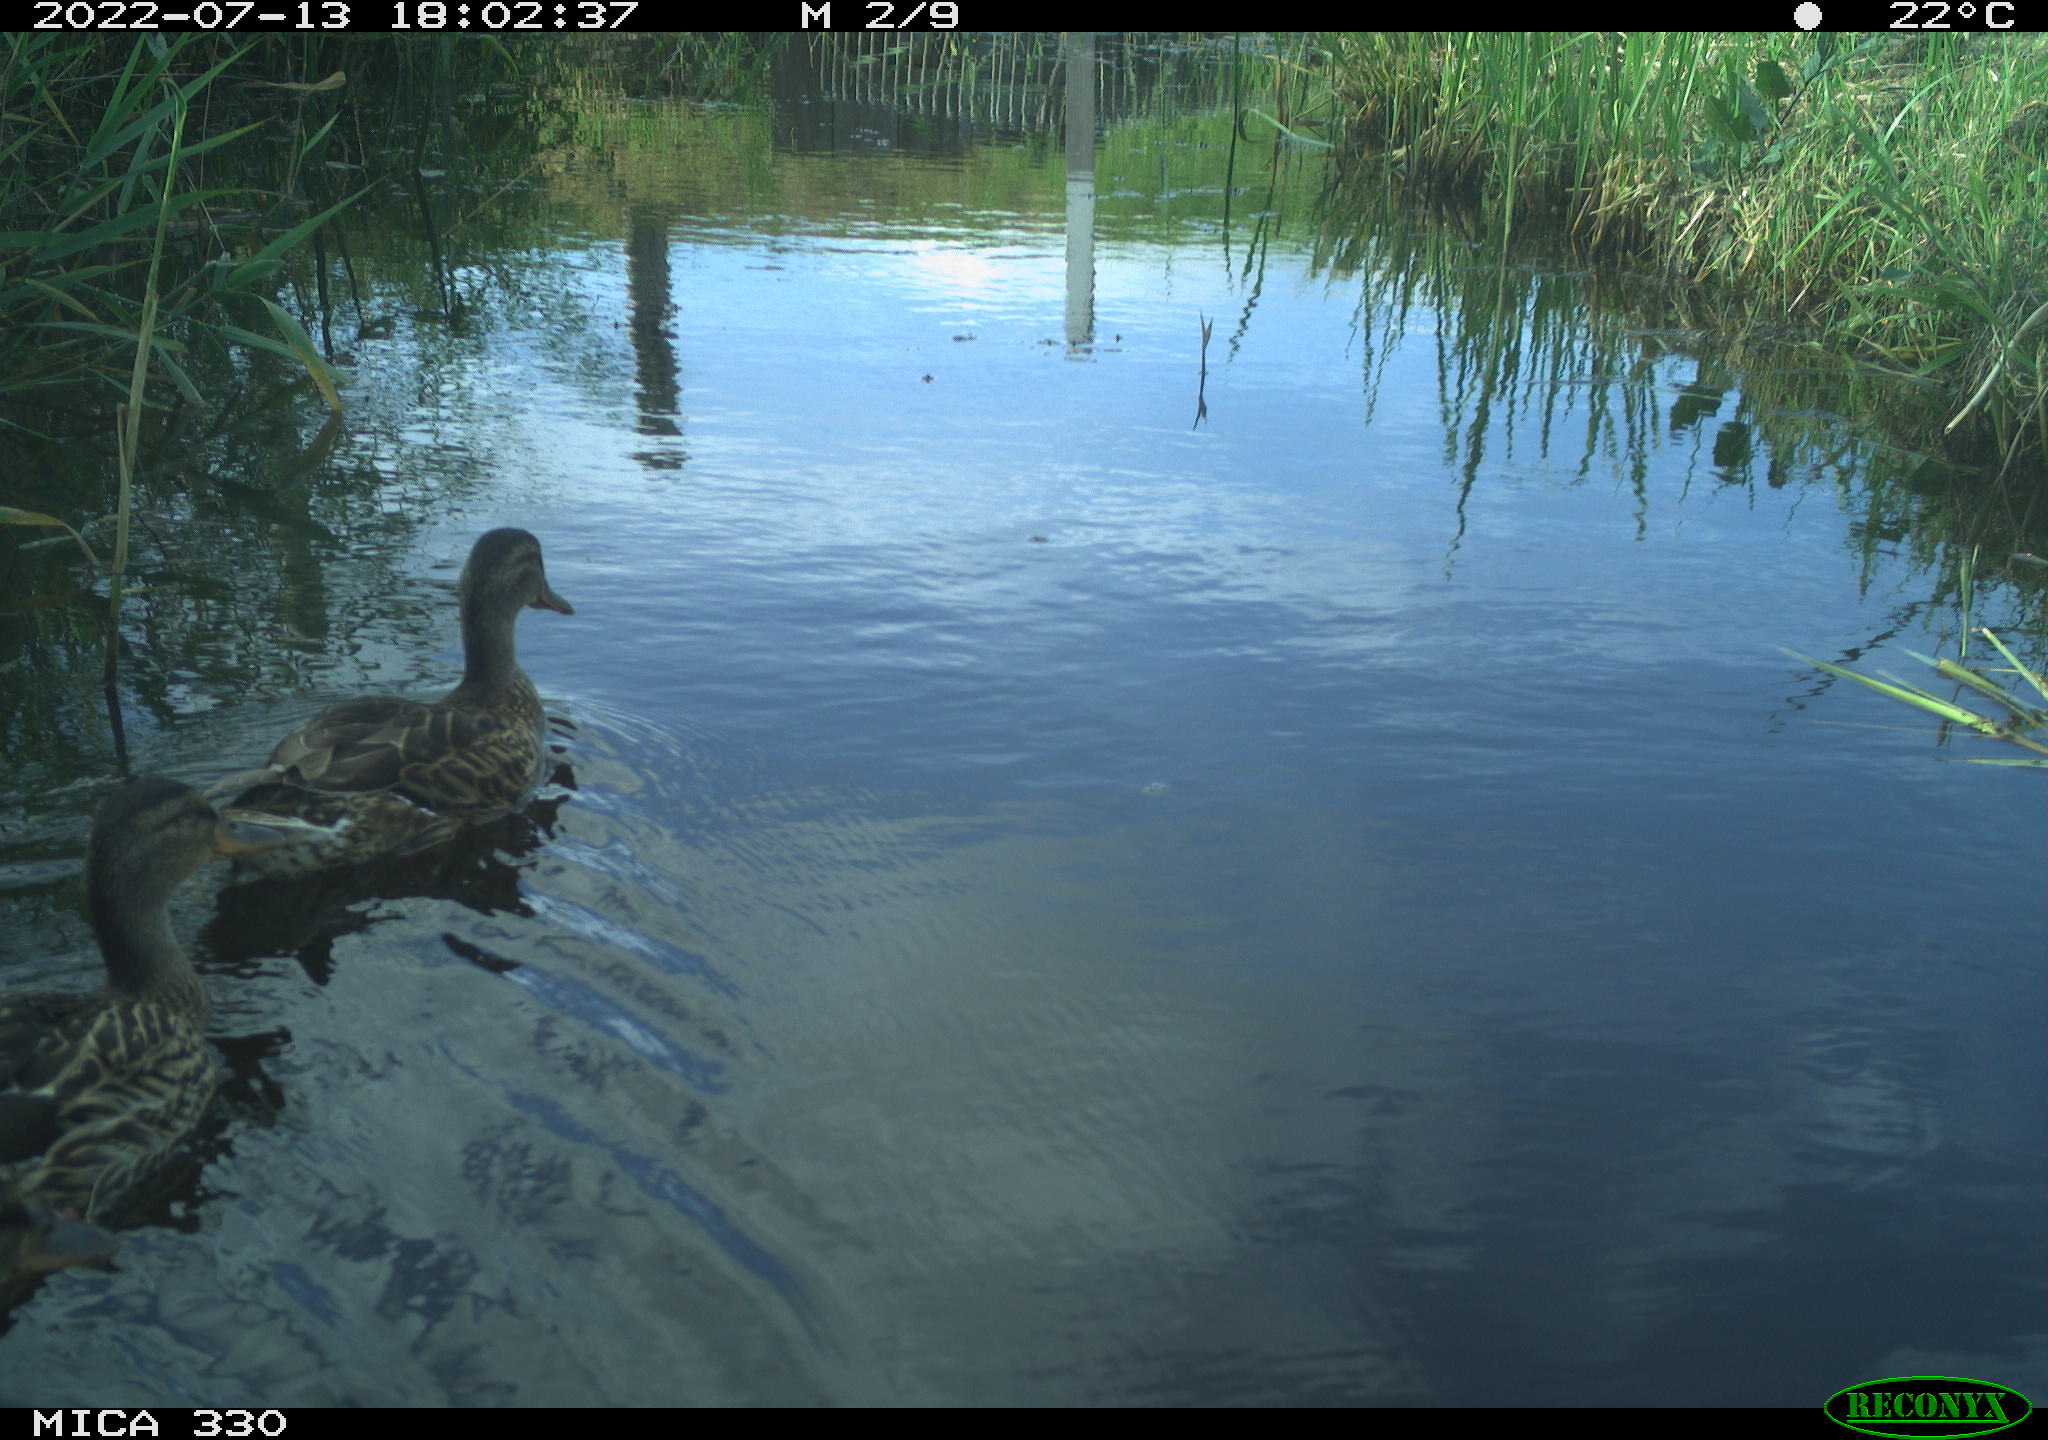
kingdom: Animalia
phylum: Chordata
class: Aves
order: Anseriformes
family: Anatidae
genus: Anas
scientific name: Anas platyrhynchos
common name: Mallard
